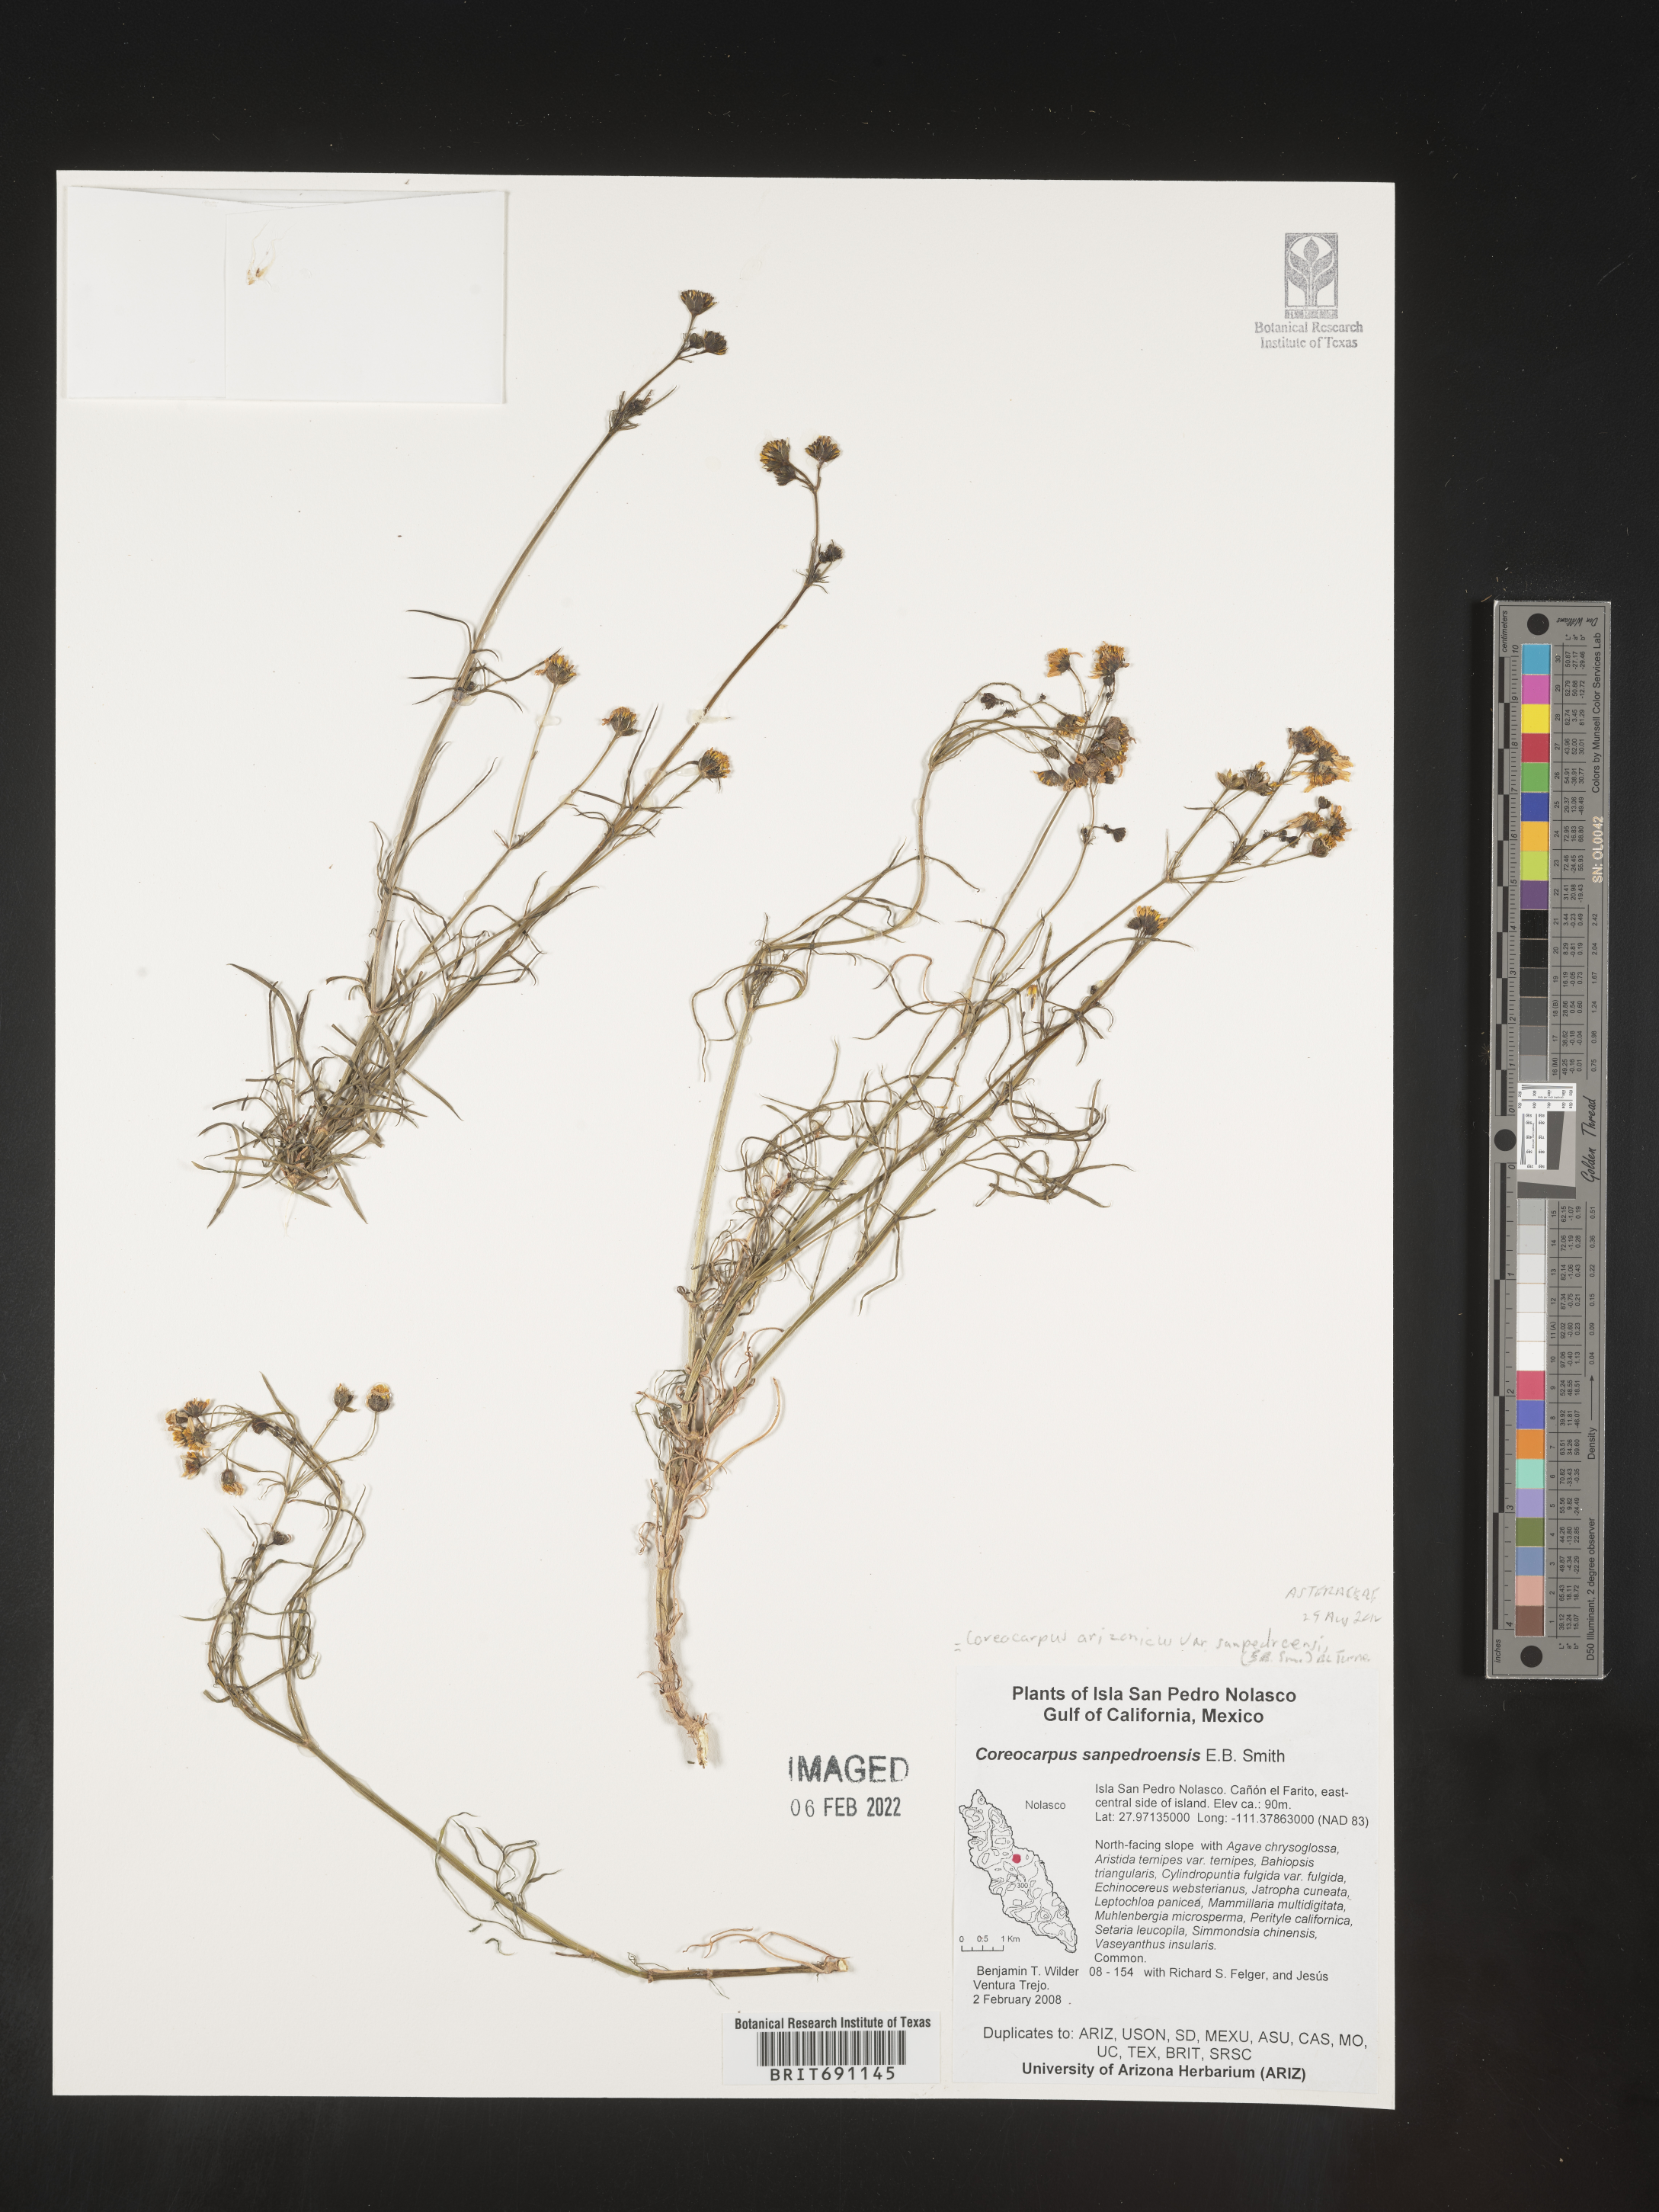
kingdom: Plantae
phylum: Tracheophyta
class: Magnoliopsida
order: Asterales
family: Asteraceae
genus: Coreocarpus
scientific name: Coreocarpus
